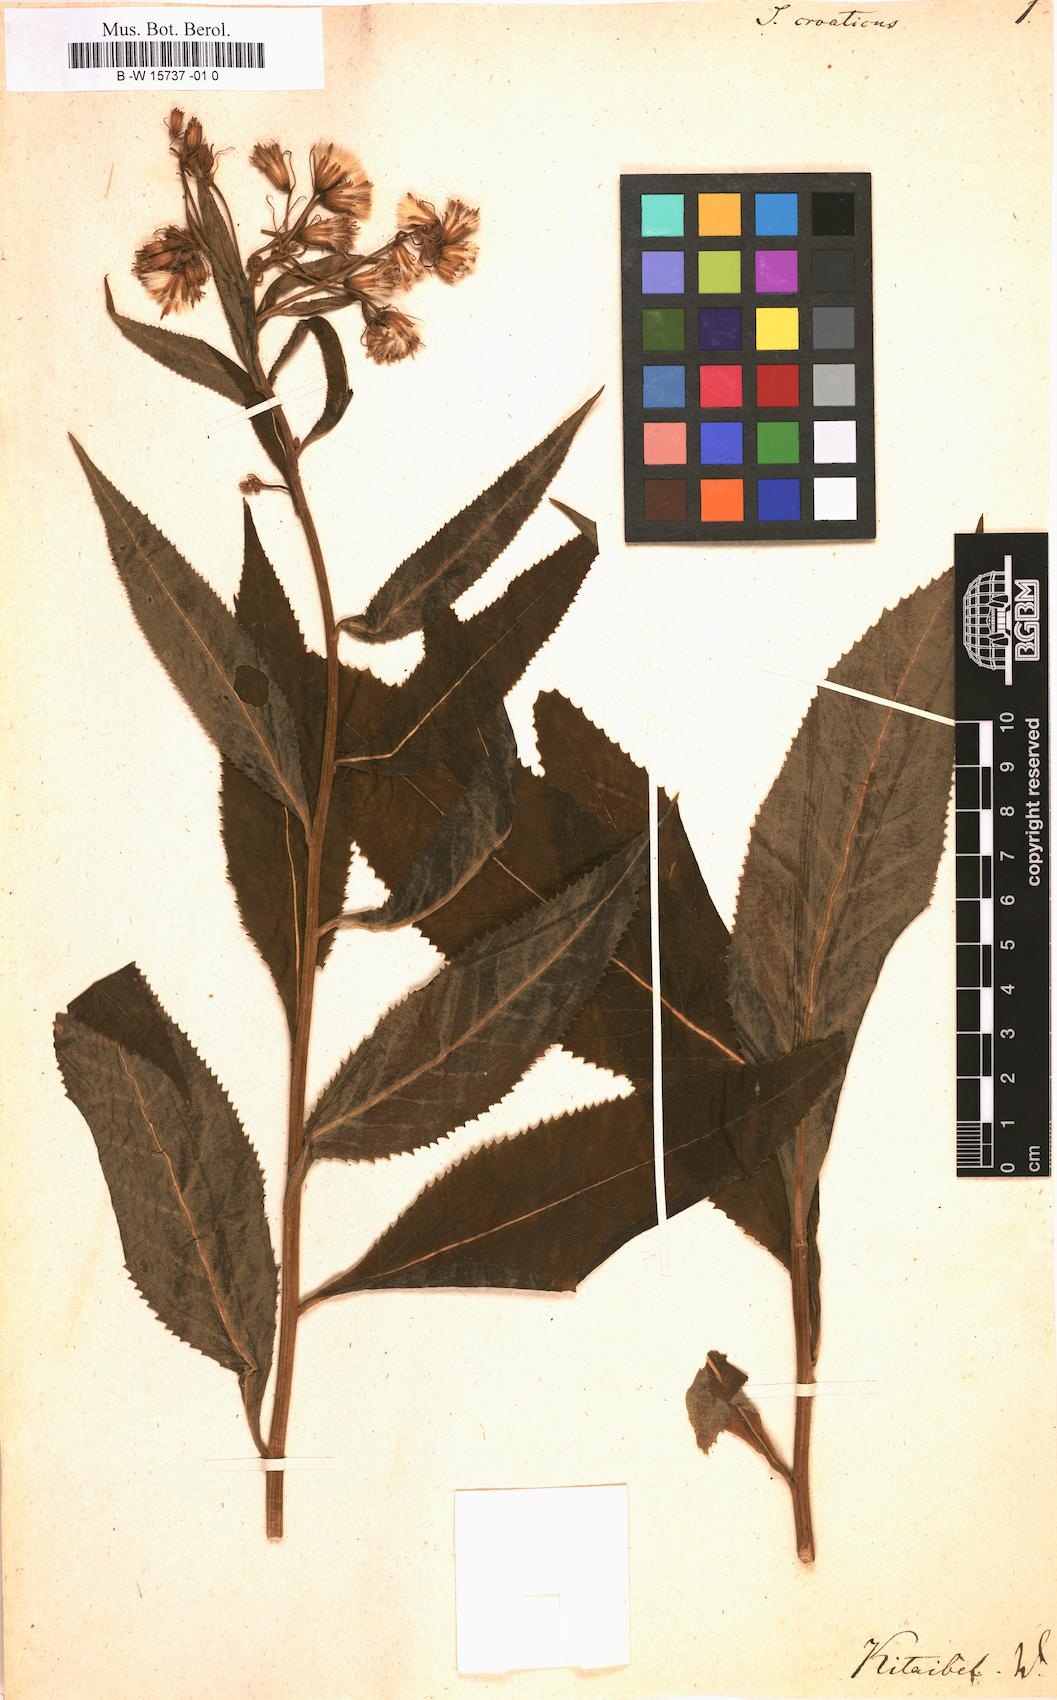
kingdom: Plantae
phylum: Tracheophyta
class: Magnoliopsida
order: Asterales
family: Asteraceae
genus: Senecio
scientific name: Senecio cacaliaster
